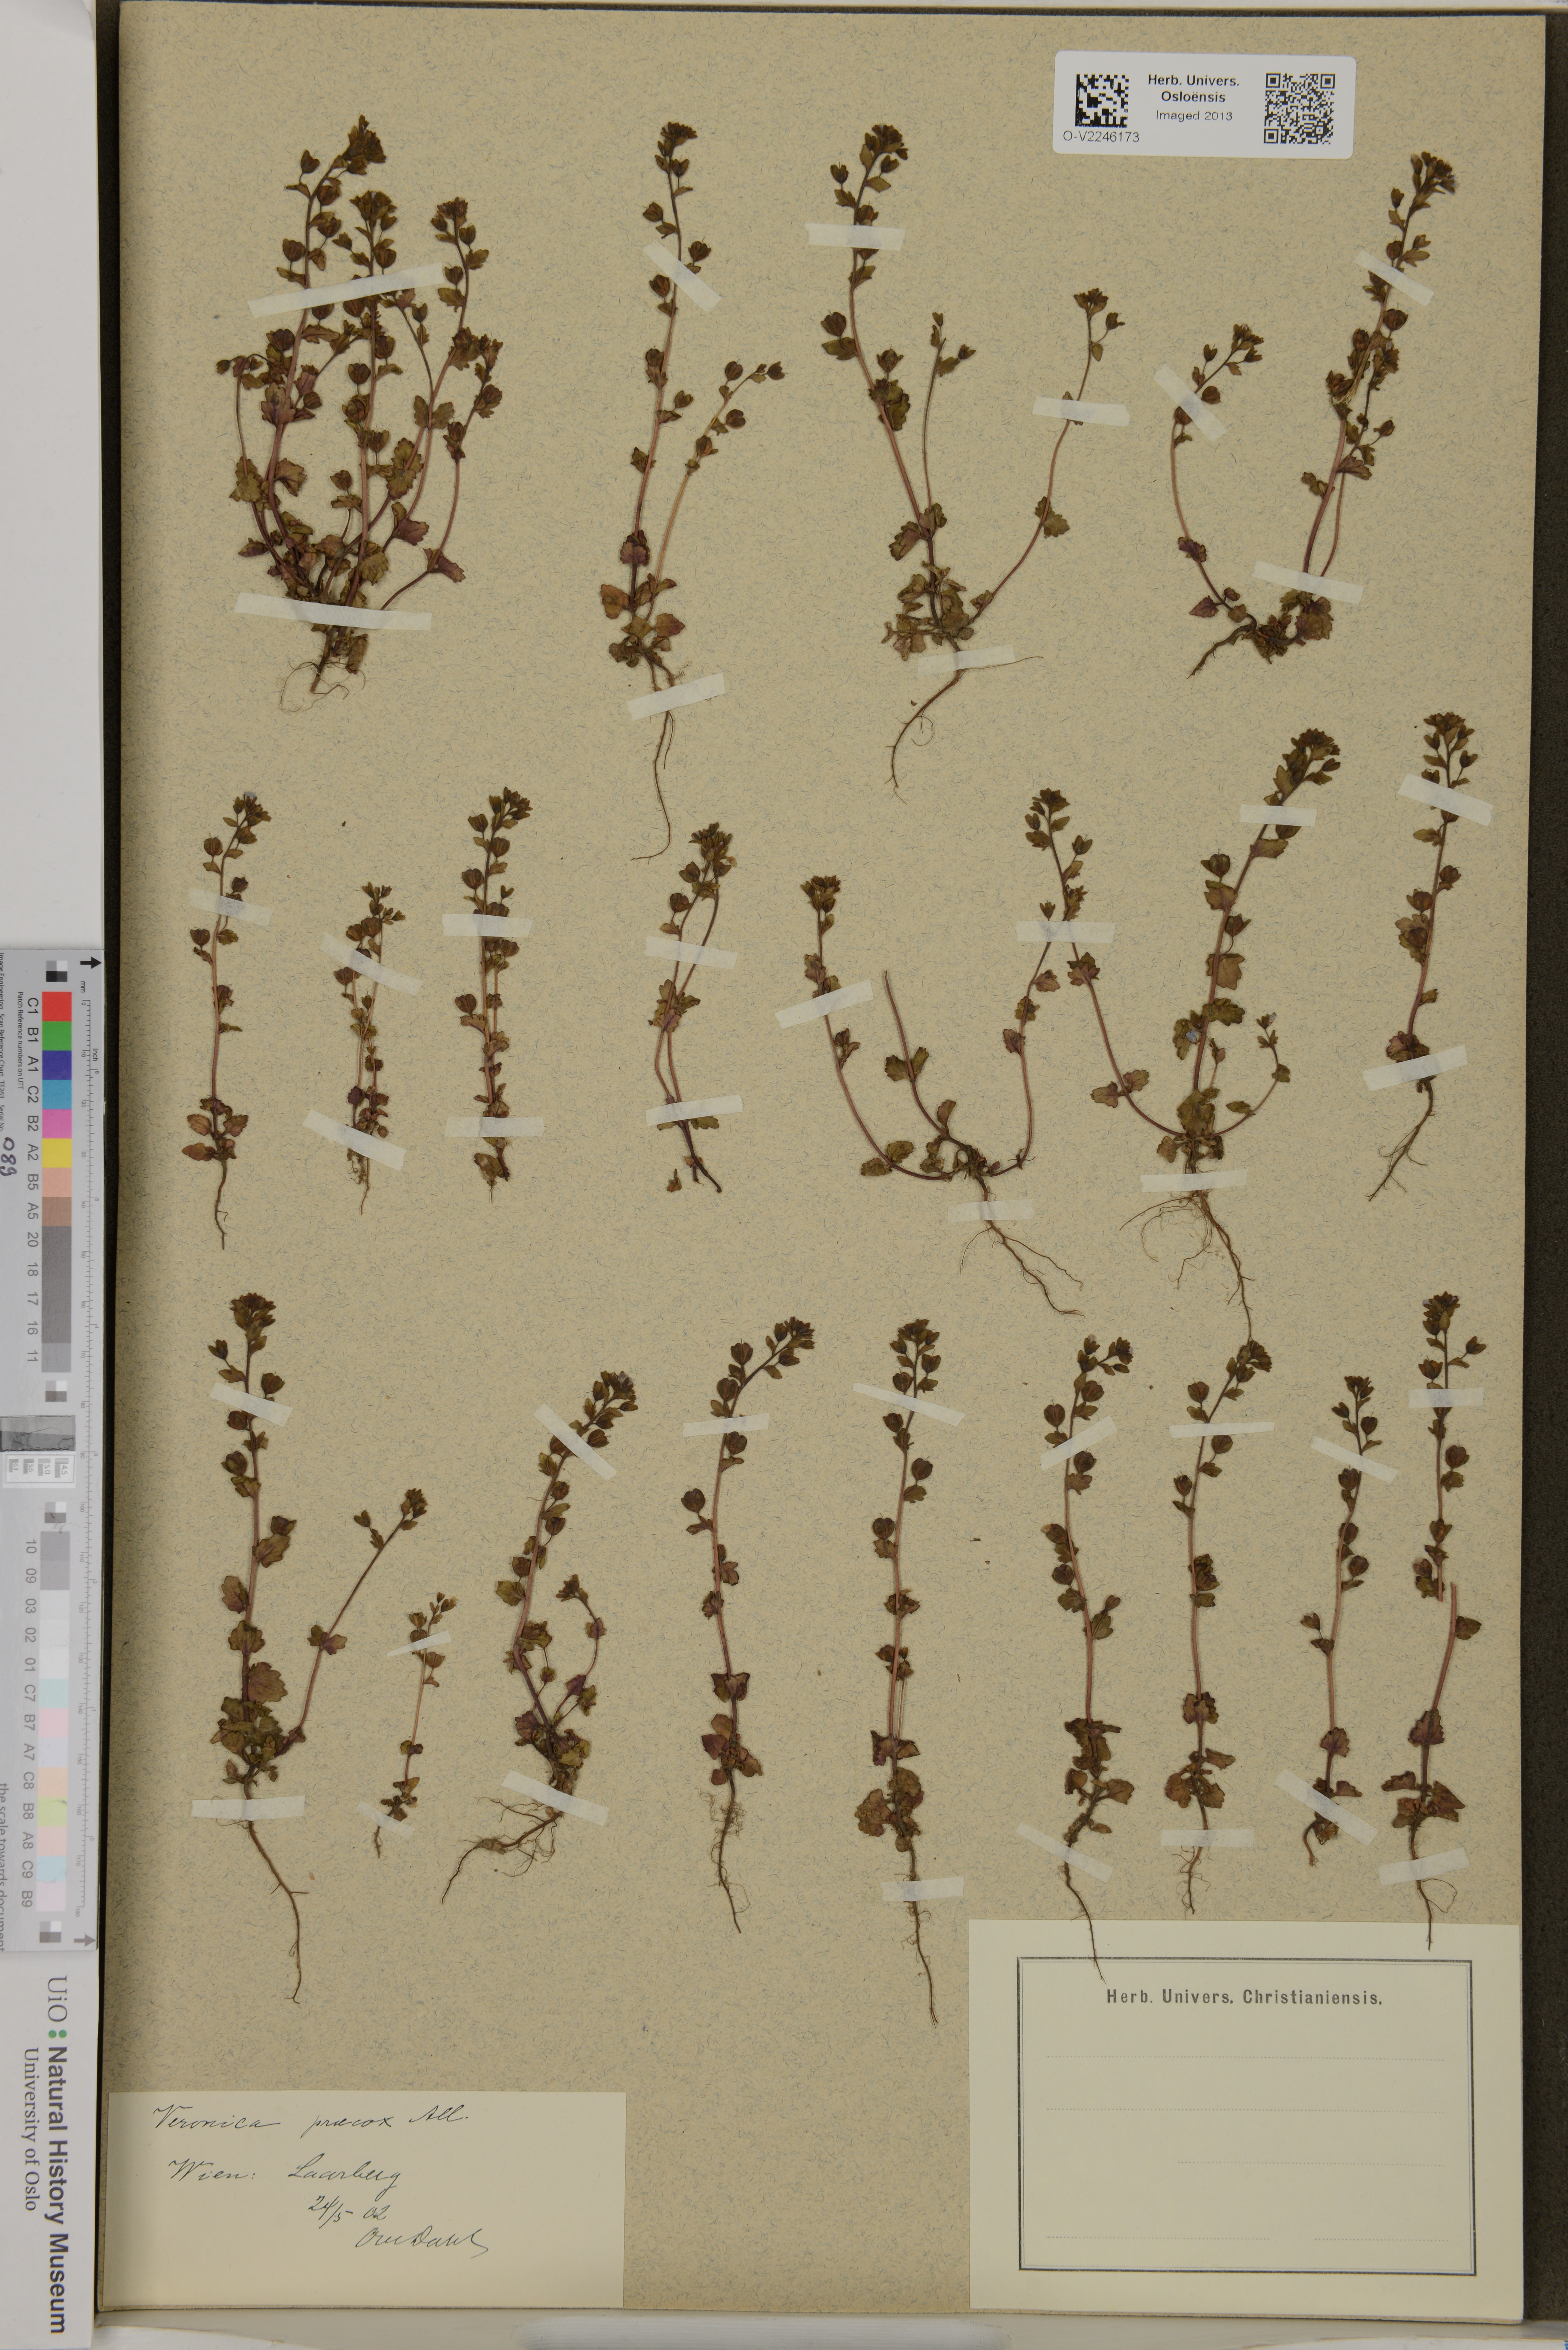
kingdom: Plantae
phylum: Tracheophyta
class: Magnoliopsida
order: Lamiales
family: Plantaginaceae
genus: Veronica
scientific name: Veronica praecox
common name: Breckland speedwell
